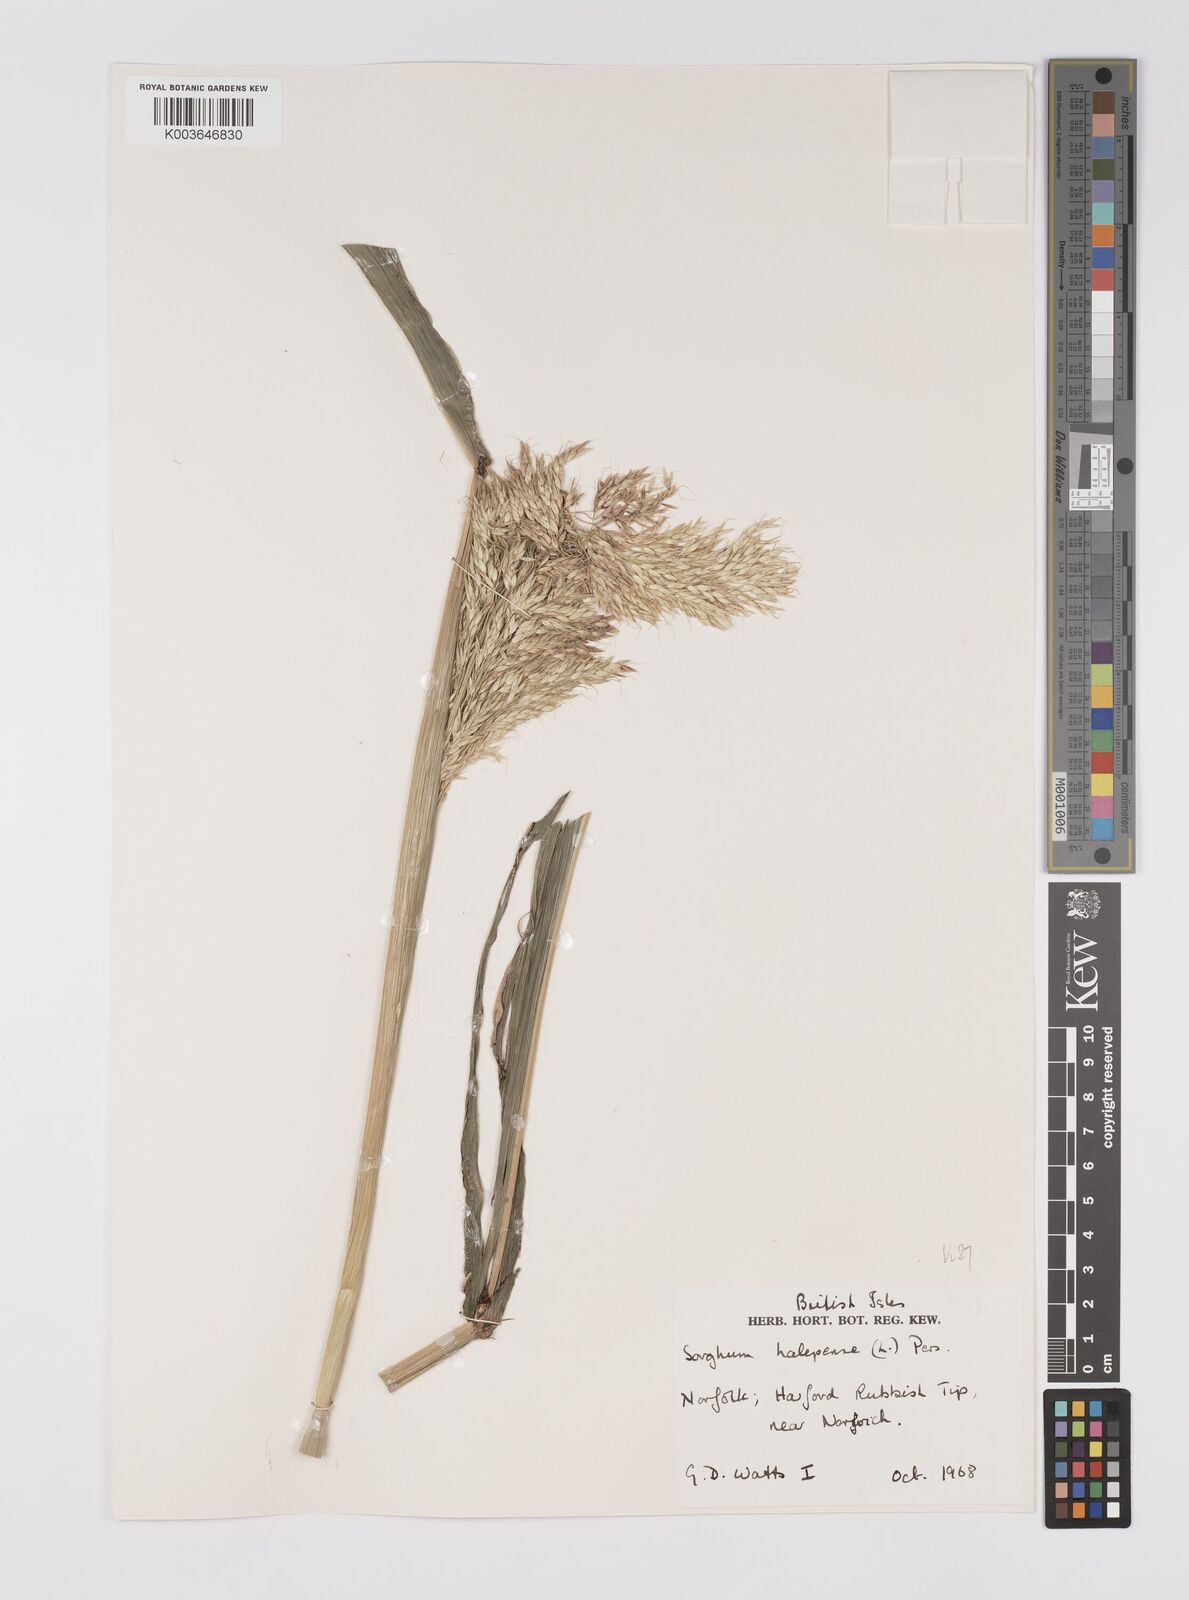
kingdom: Plantae
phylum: Tracheophyta
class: Liliopsida
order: Poales
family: Poaceae
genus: Sorghum
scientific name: Sorghum halepense
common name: Johnson-grass
